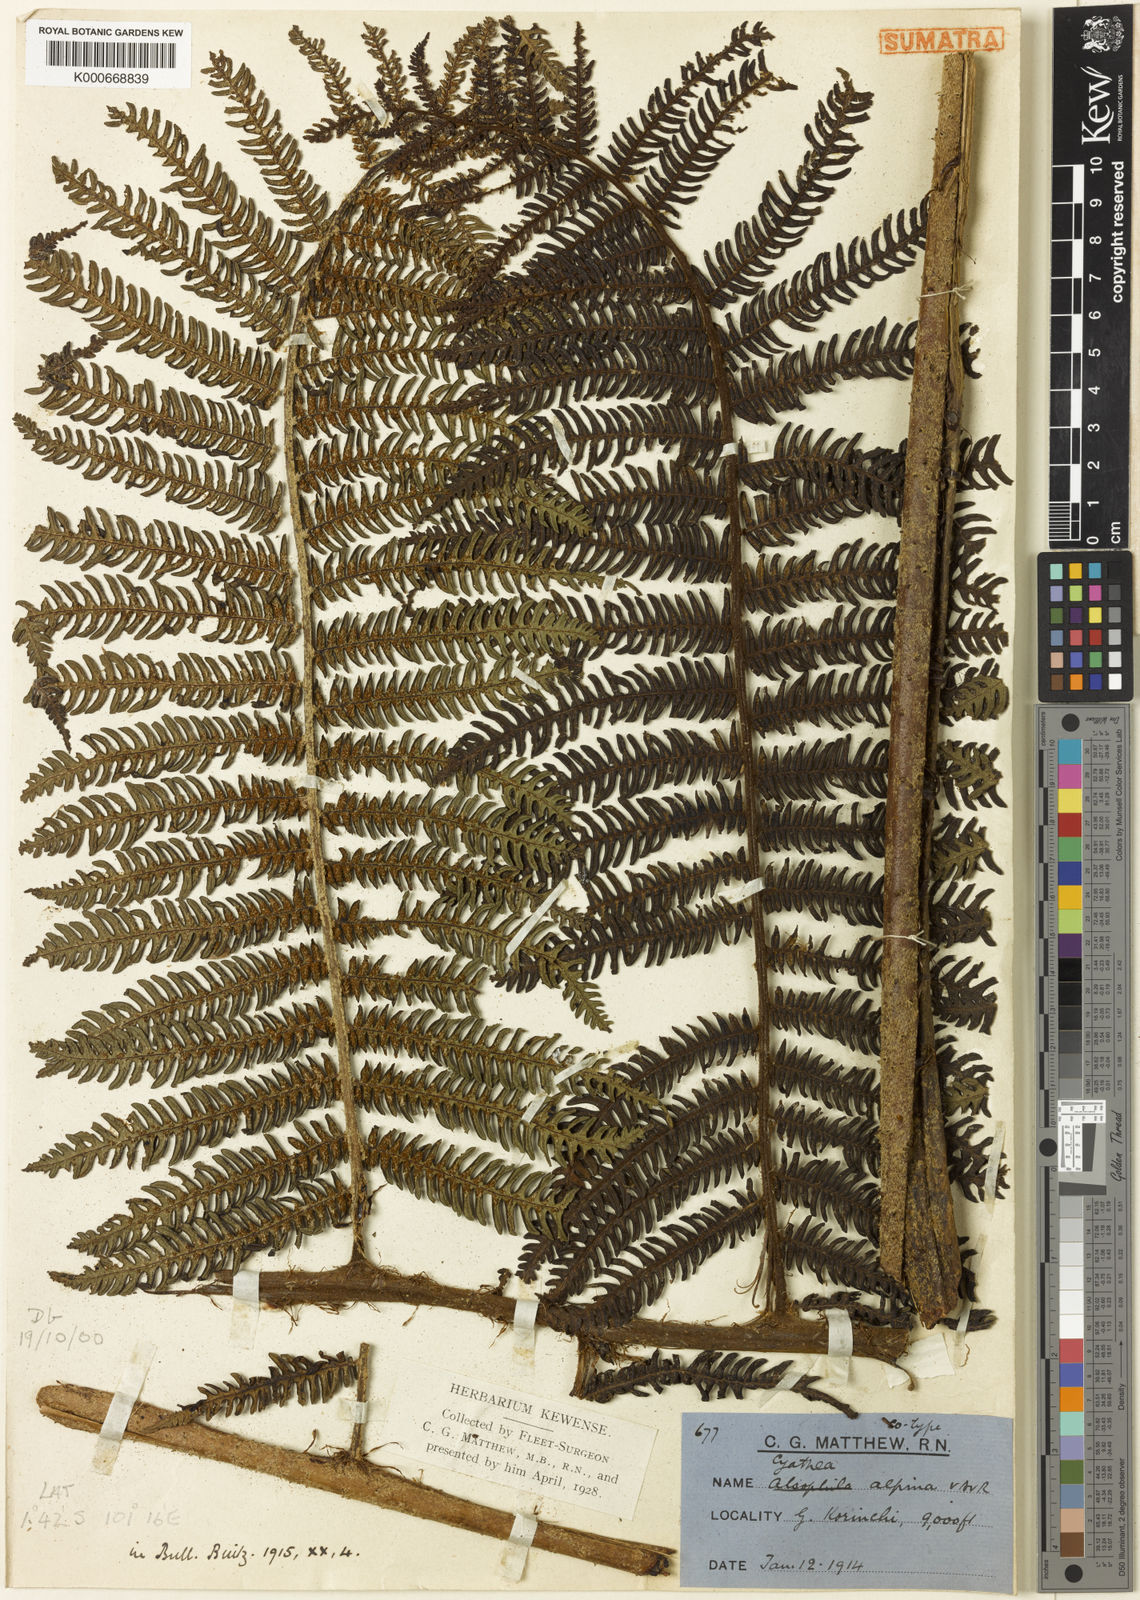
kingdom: Plantae
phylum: Tracheophyta
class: Polypodiopsida
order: Cyatheales
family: Cyatheaceae
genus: Alsophila
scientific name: Alsophila alpina
